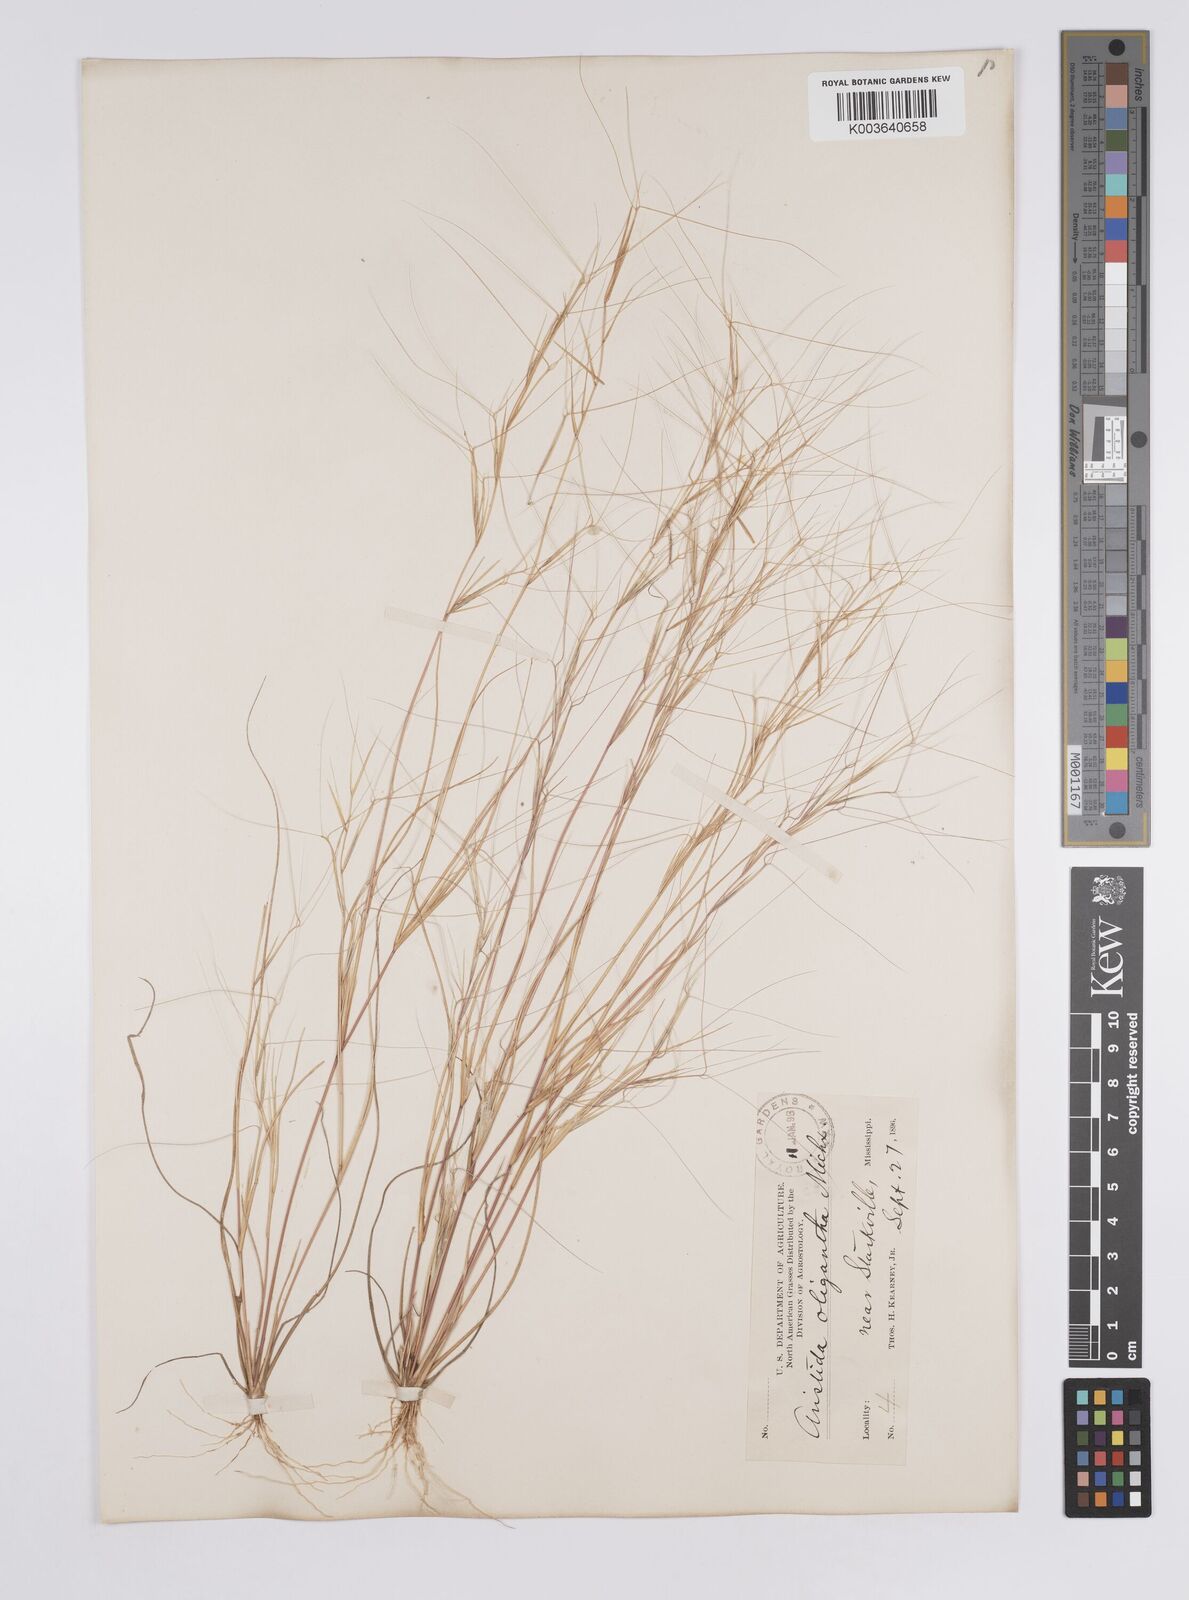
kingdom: Plantae
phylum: Tracheophyta
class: Liliopsida
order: Poales
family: Poaceae
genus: Aristida
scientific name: Aristida oligantha
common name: Few-flowered aristida
